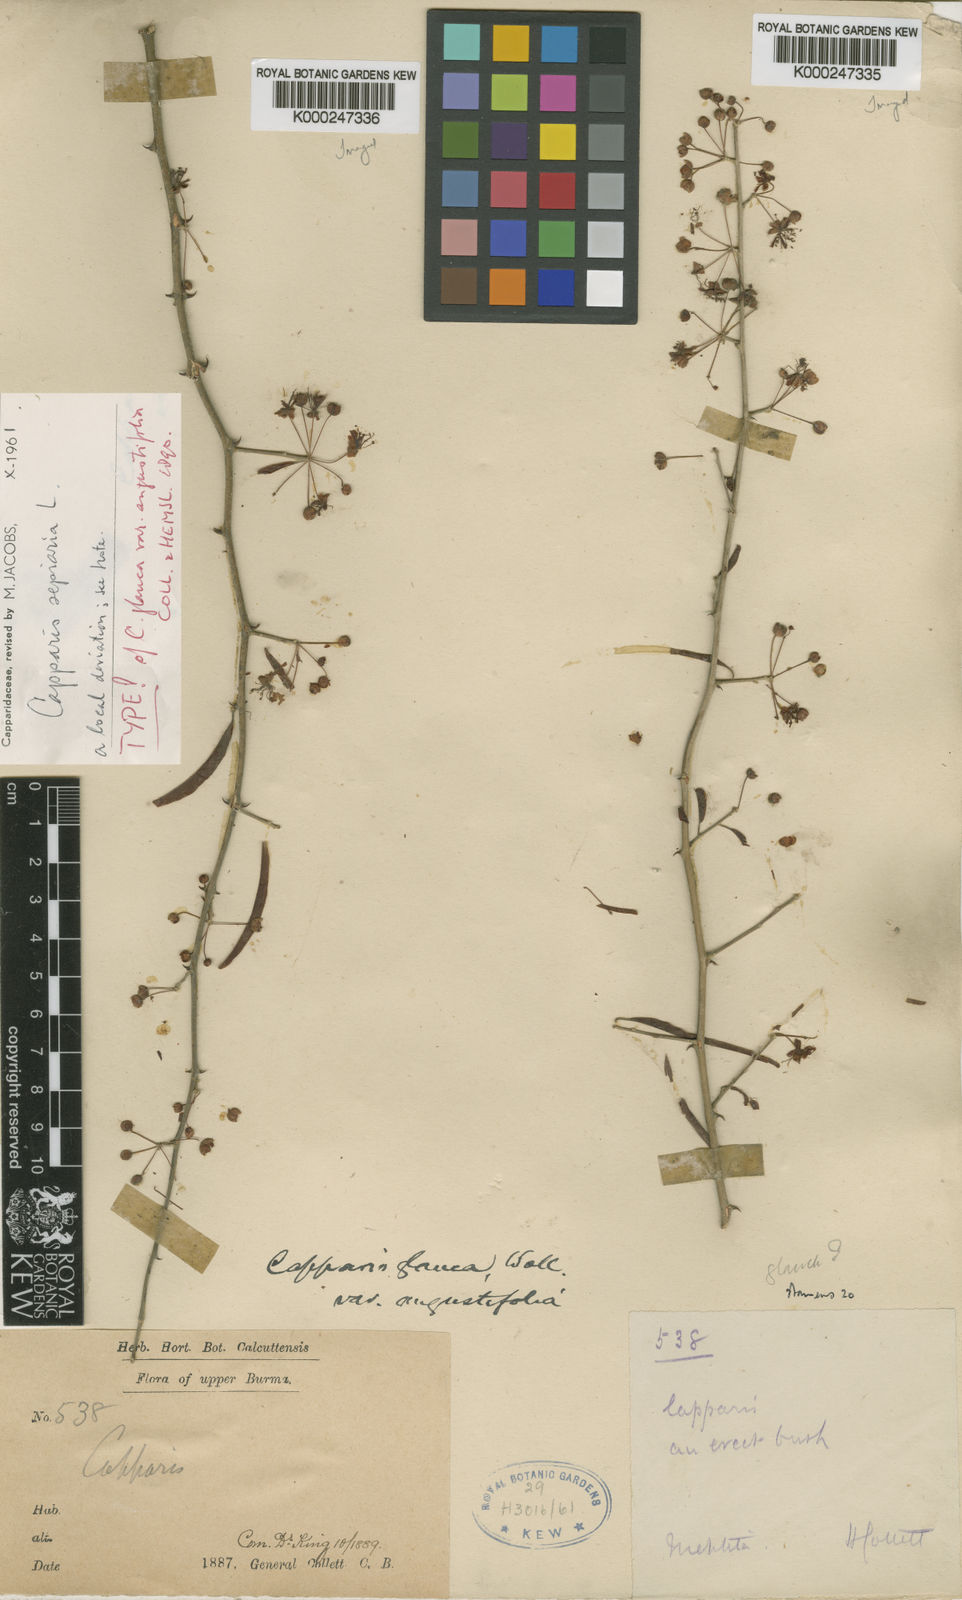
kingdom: Plantae
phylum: Tracheophyta
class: Magnoliopsida
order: Brassicales
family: Capparaceae
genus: Capparis
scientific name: Capparis sepiaria
